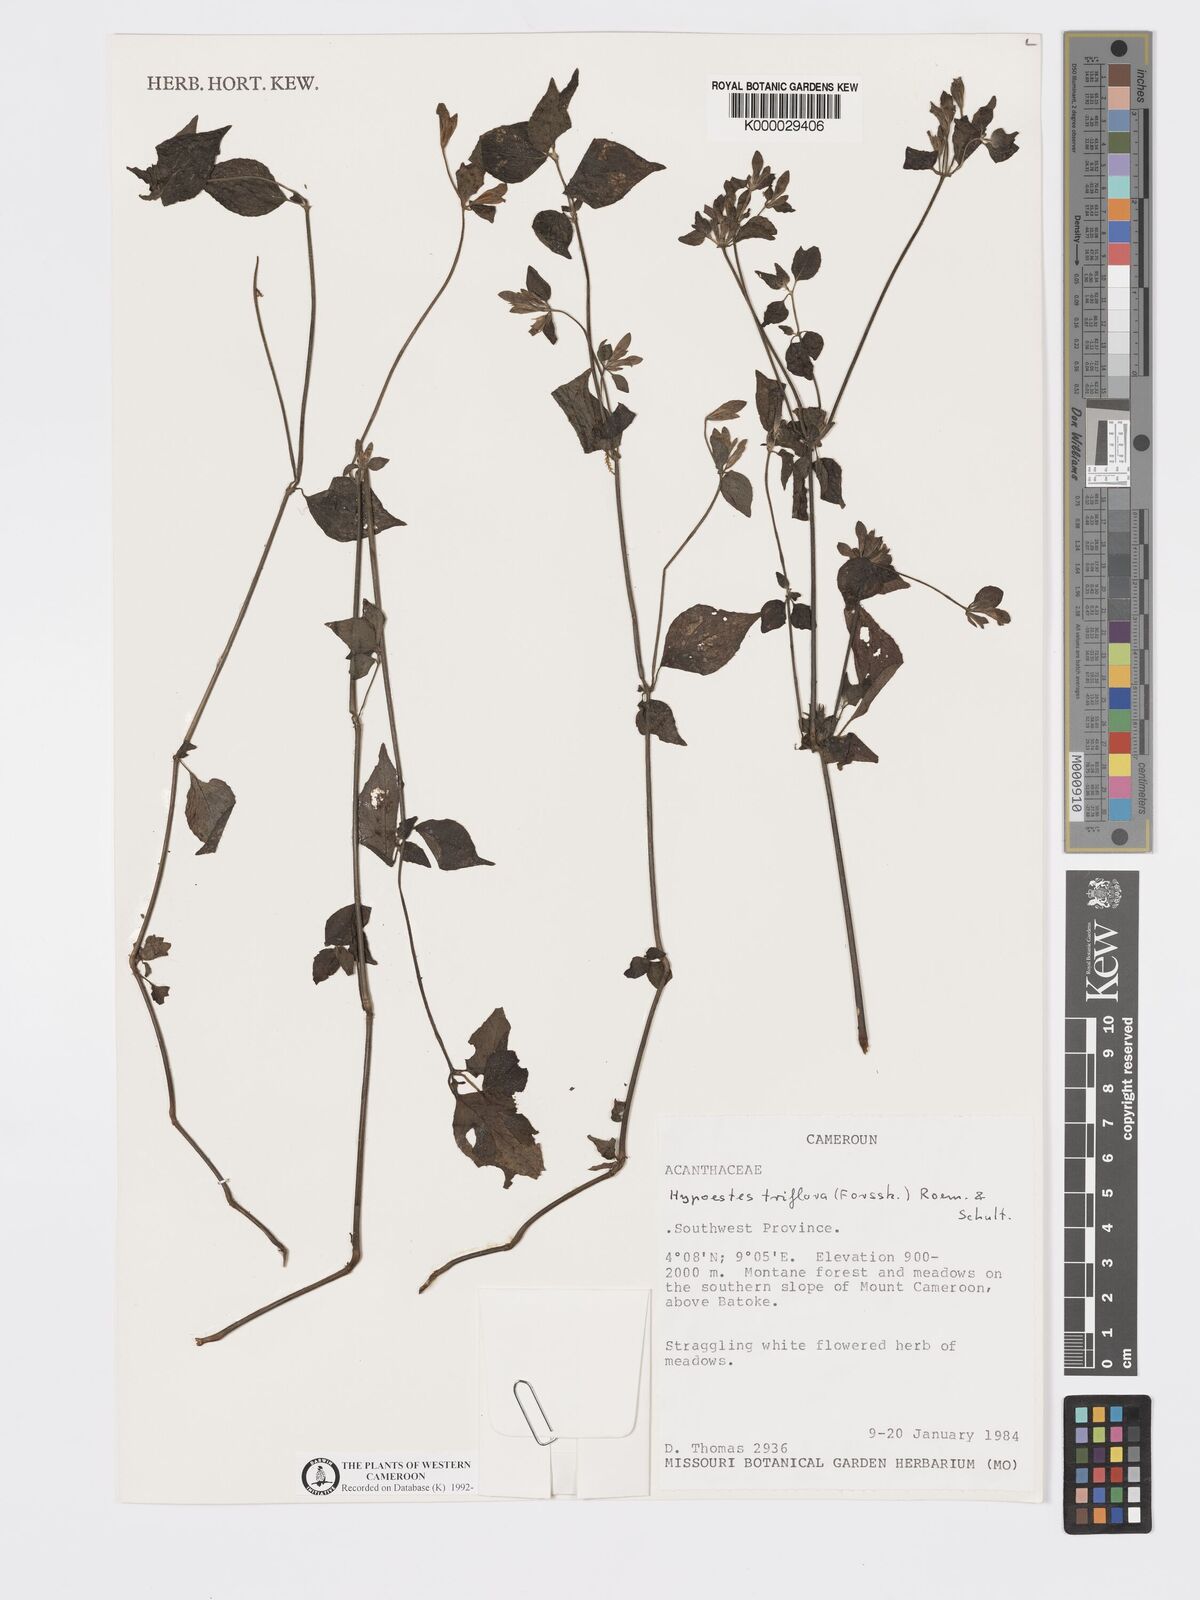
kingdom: Plantae
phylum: Tracheophyta
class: Magnoliopsida
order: Lamiales
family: Acanthaceae
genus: Hypoestes
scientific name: Hypoestes triflora
